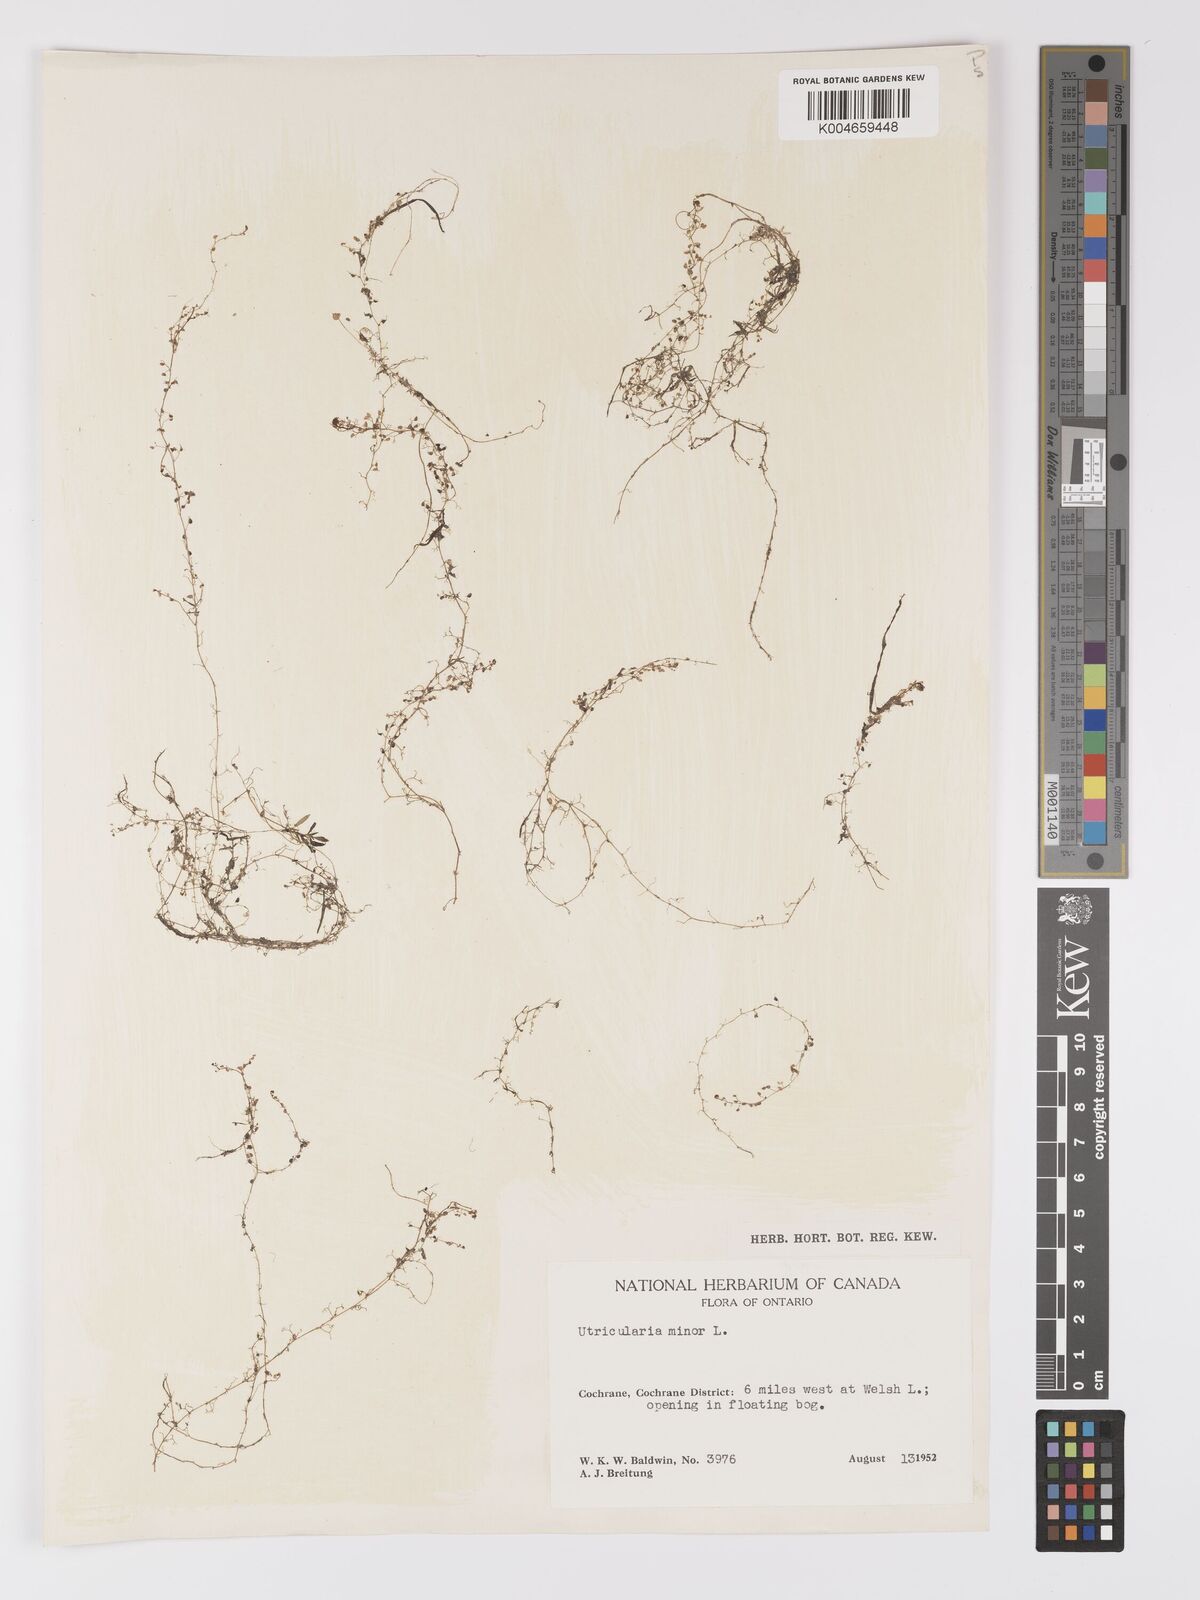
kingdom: Plantae
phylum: Tracheophyta
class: Magnoliopsida
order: Lamiales
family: Lentibulariaceae
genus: Utricularia
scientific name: Utricularia minor
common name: Lesser bladderwort
